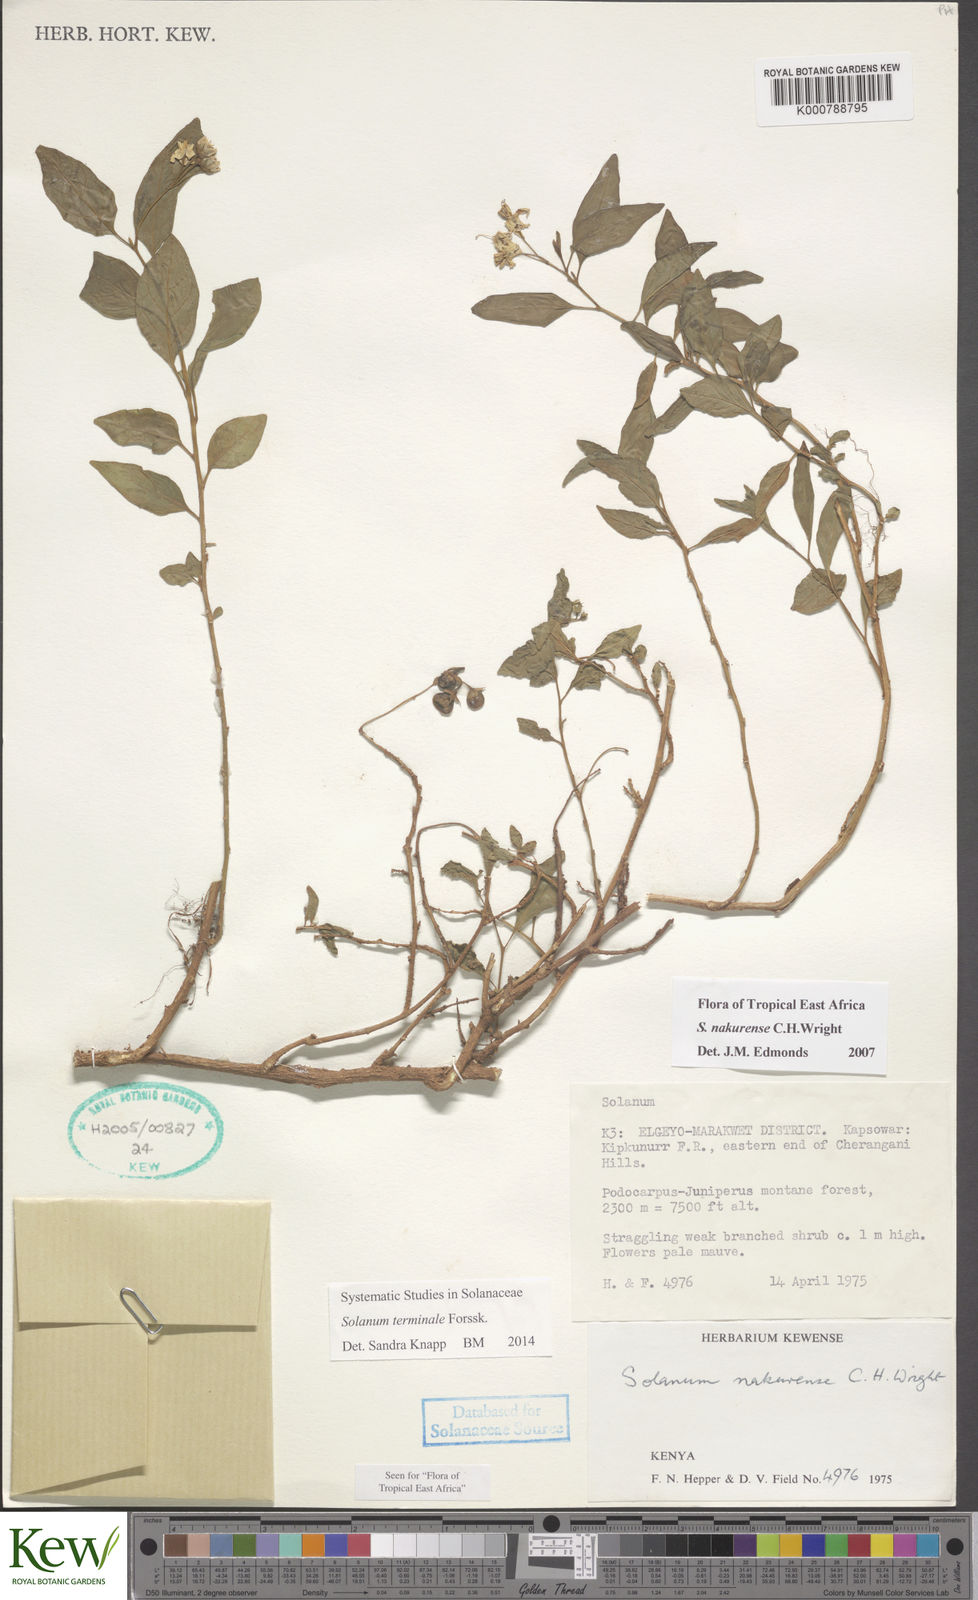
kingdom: Plantae
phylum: Tracheophyta
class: Magnoliopsida
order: Solanales
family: Solanaceae
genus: Solanum
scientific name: Solanum terminale
